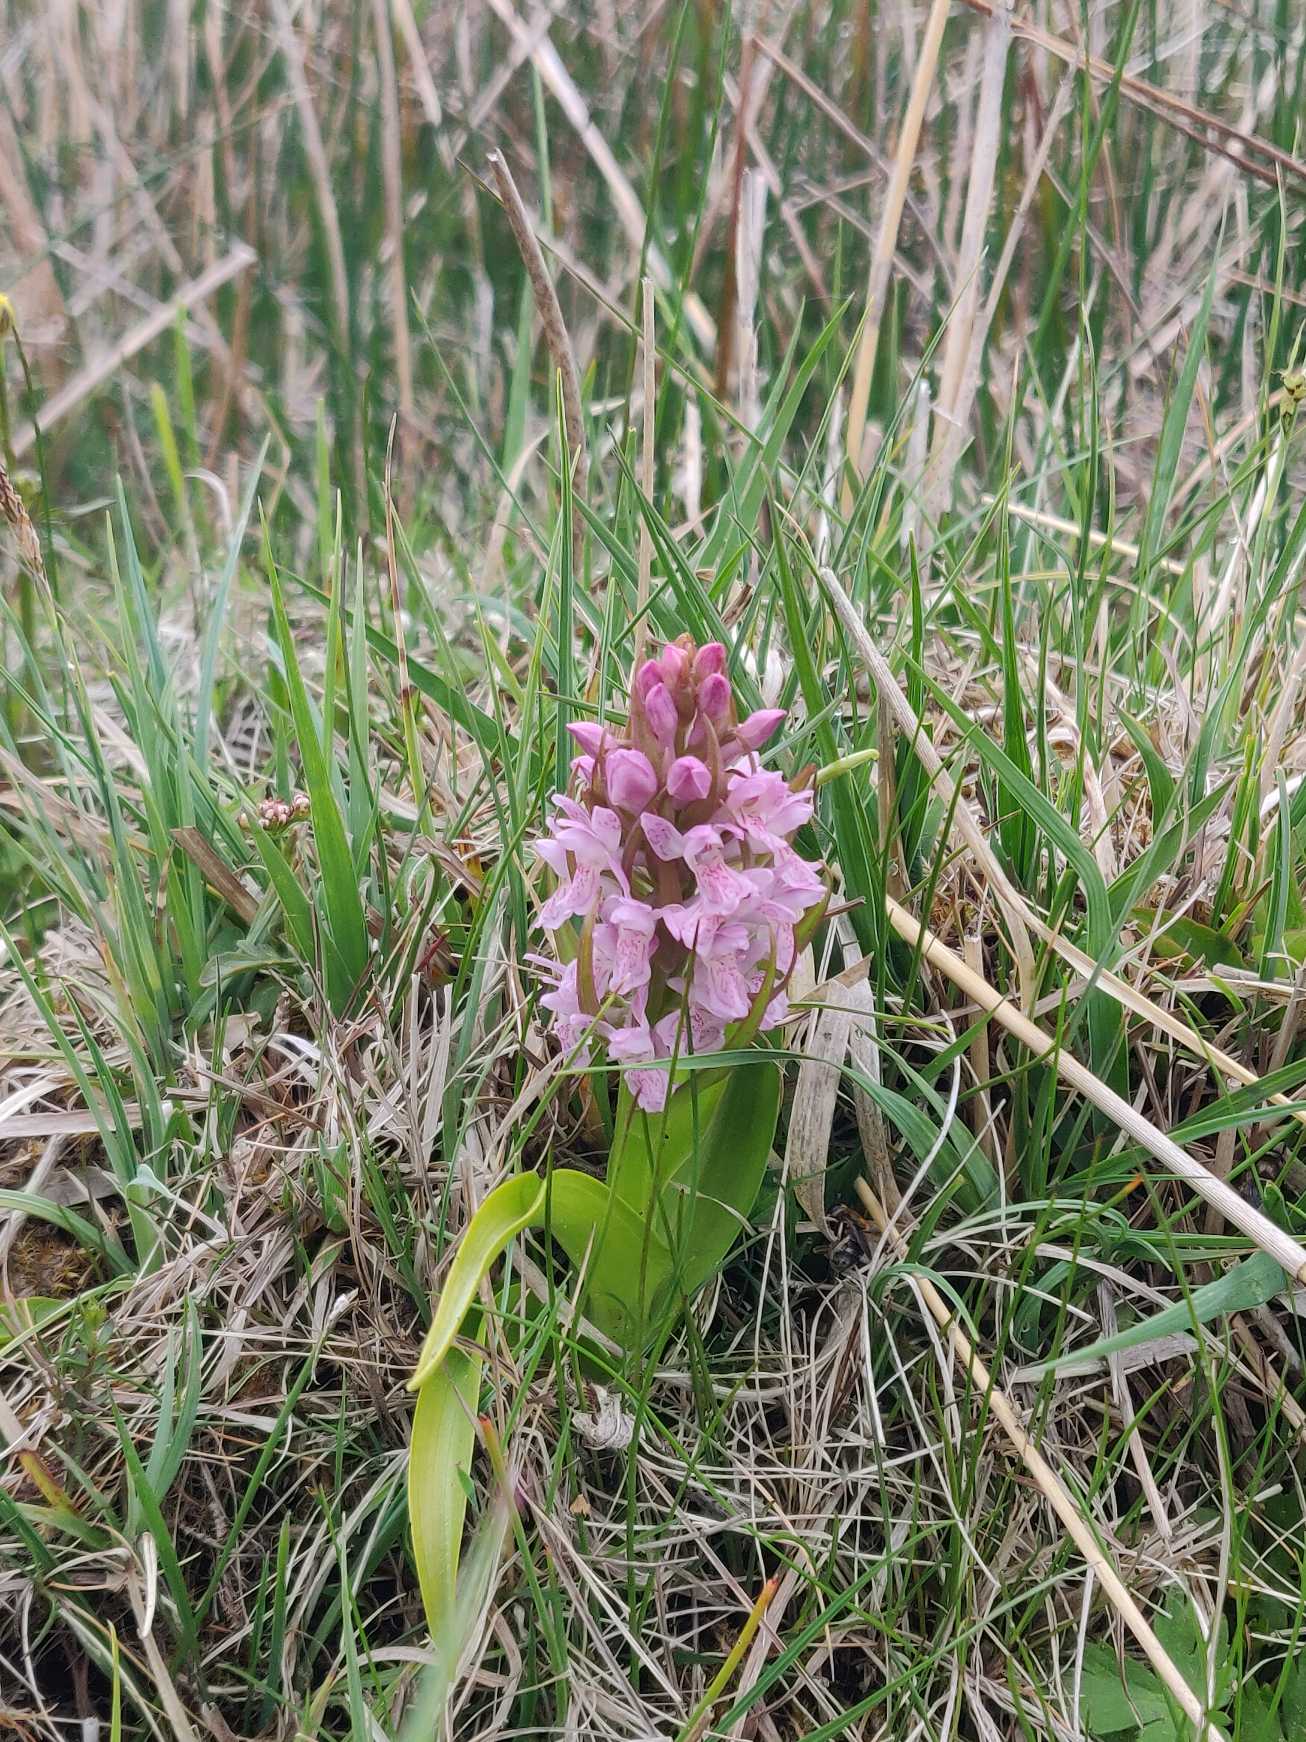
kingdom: Plantae
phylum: Tracheophyta
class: Liliopsida
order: Asparagales
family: Orchidaceae
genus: Dactylorhiza
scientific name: Dactylorhiza incarnata
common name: Kødfarvet gøgeurt (varietet)
